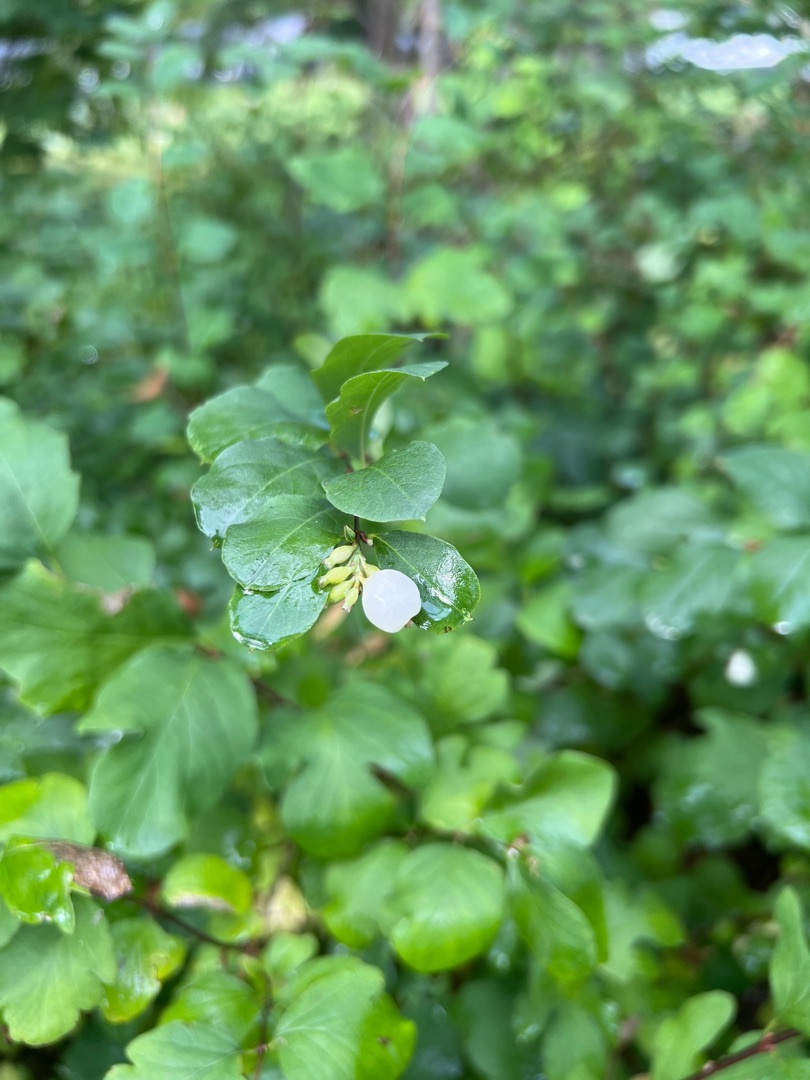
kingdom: Plantae
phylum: Tracheophyta
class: Magnoliopsida
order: Dipsacales
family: Caprifoliaceae
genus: Symphoricarpos
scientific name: Symphoricarpos albus
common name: Almindelig snebær
